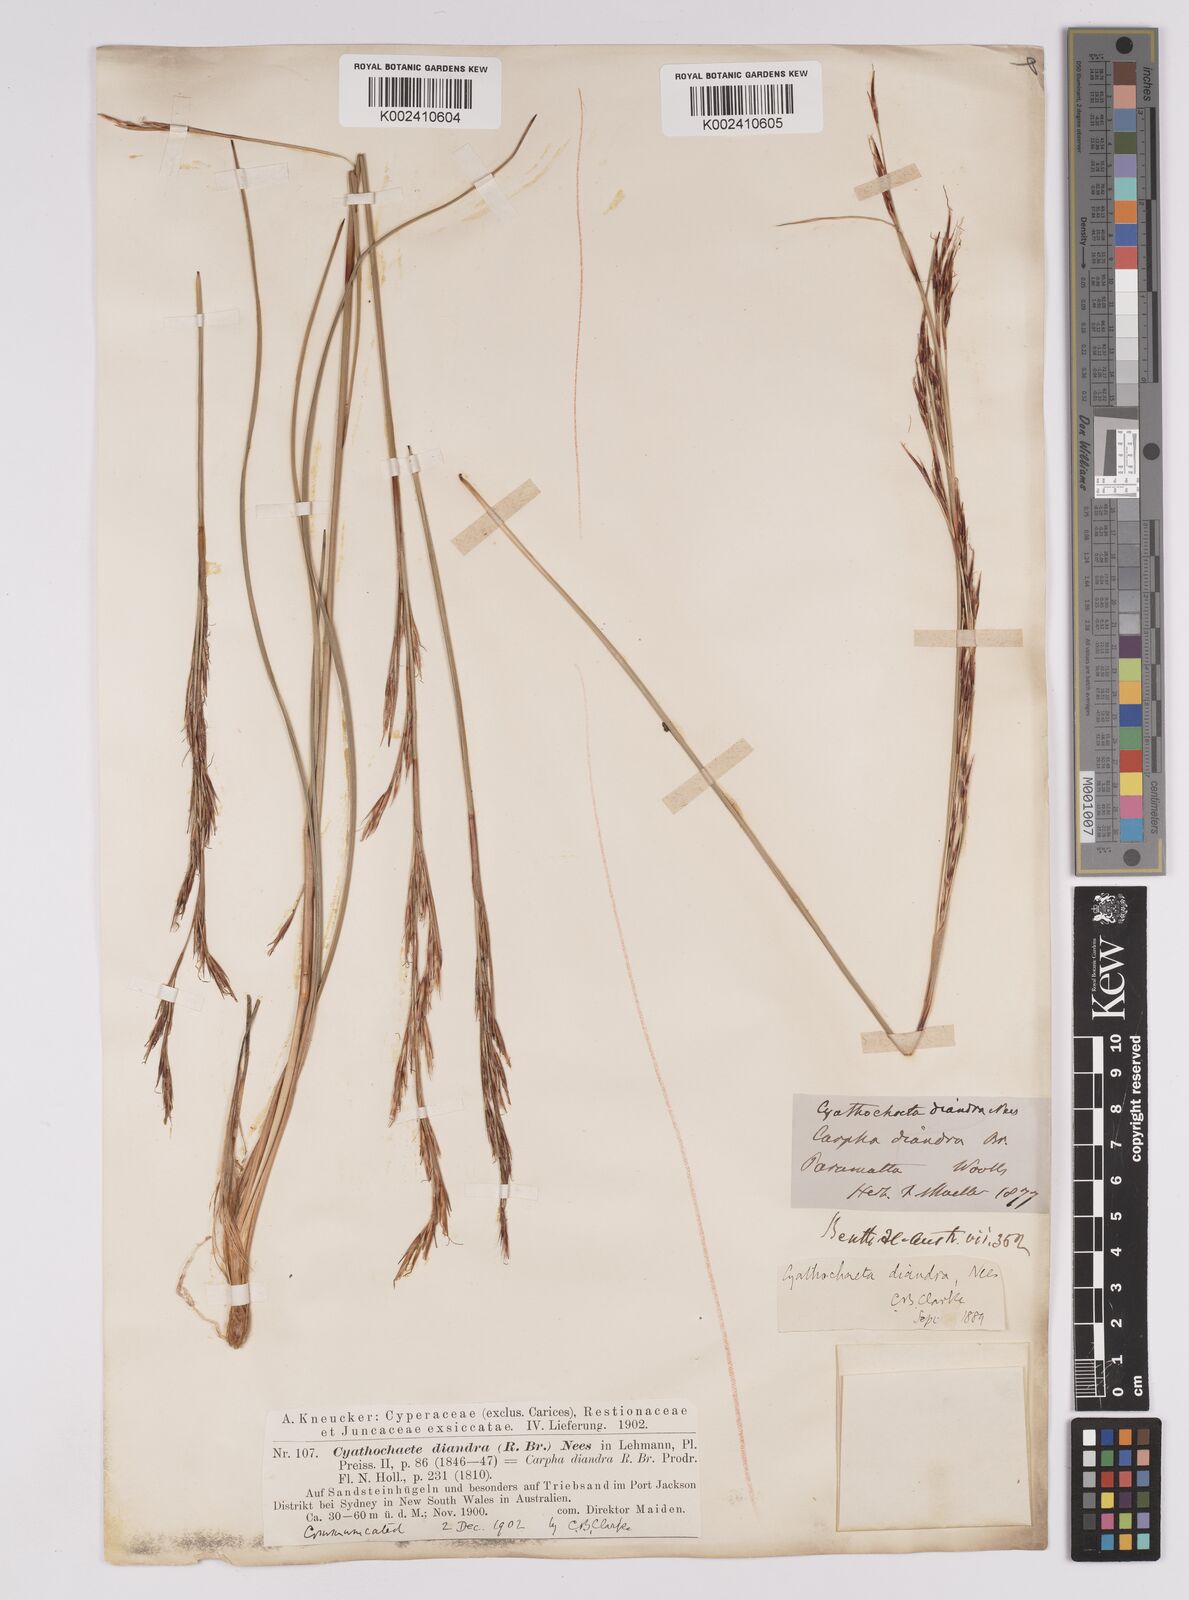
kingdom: Plantae
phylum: Tracheophyta
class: Liliopsida
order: Poales
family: Cyperaceae
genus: Cyathochaeta
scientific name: Cyathochaeta diandra
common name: Sheath rush
